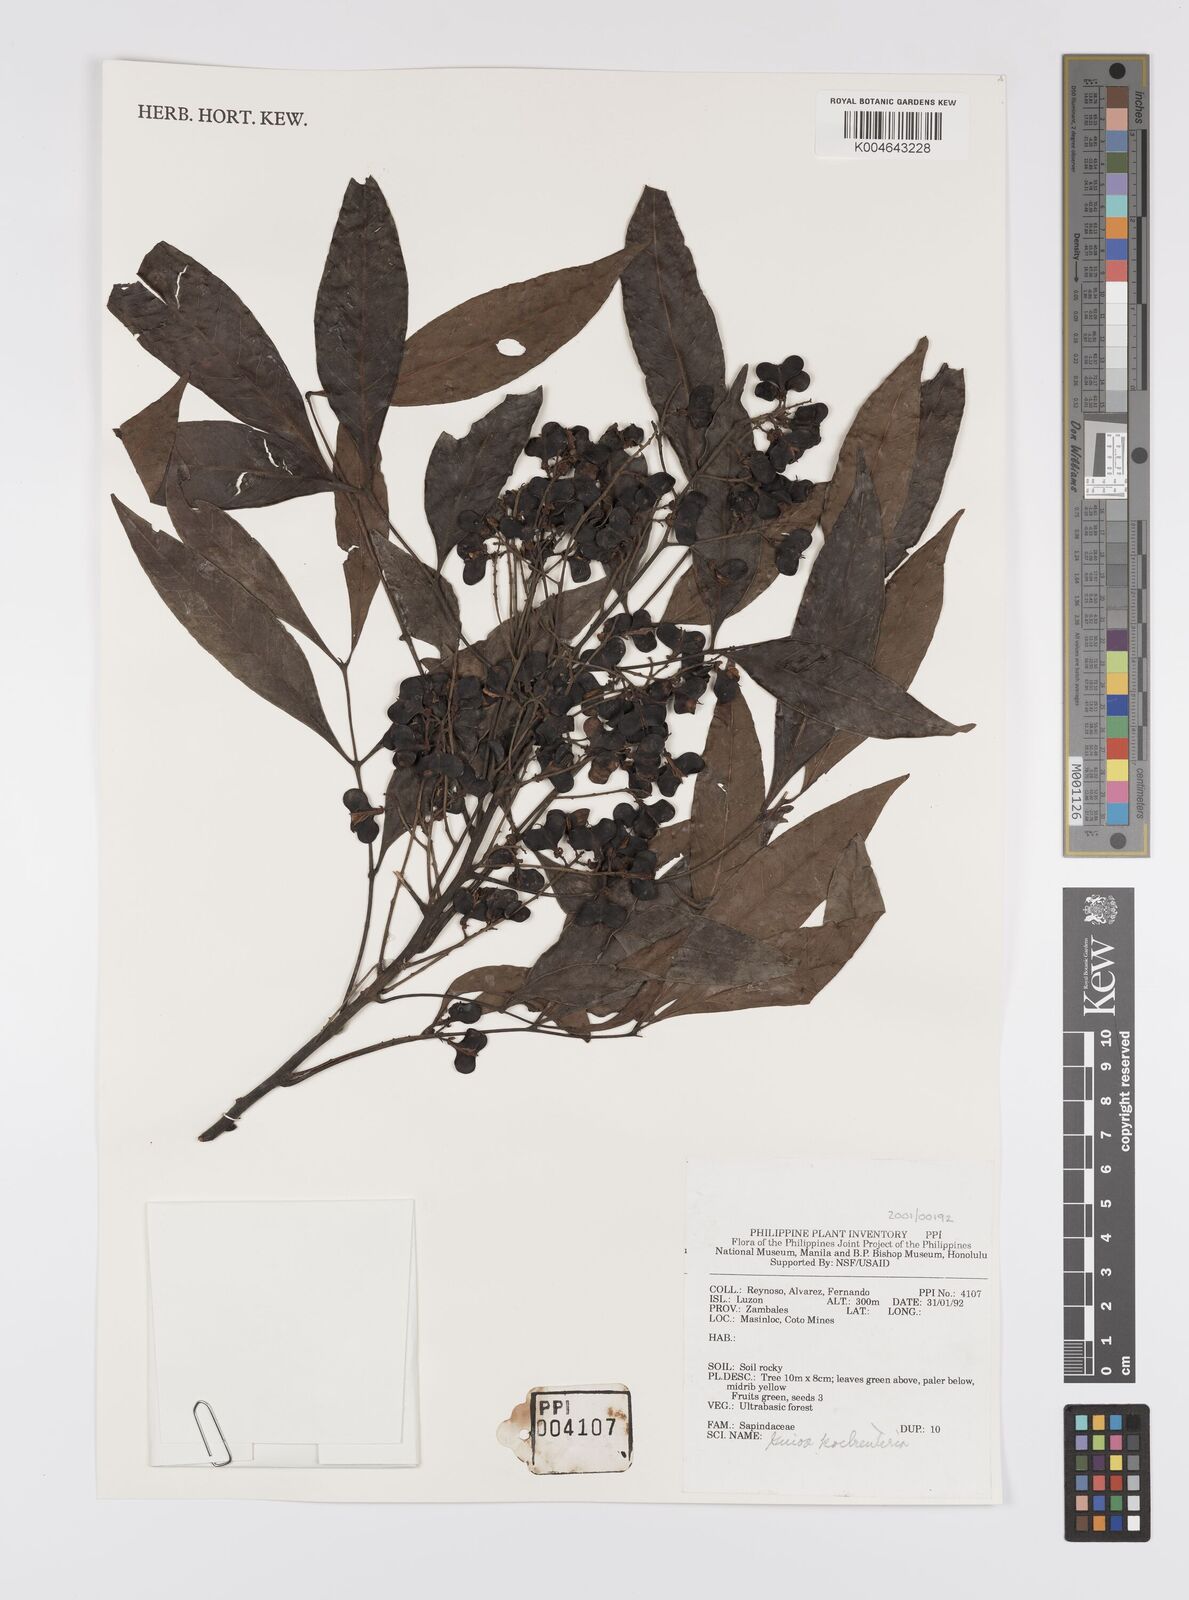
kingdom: Plantae
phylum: Tracheophyta
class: Magnoliopsida
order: Sapindales
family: Sapindaceae
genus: Guioa
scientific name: Guioa koelreuteria
